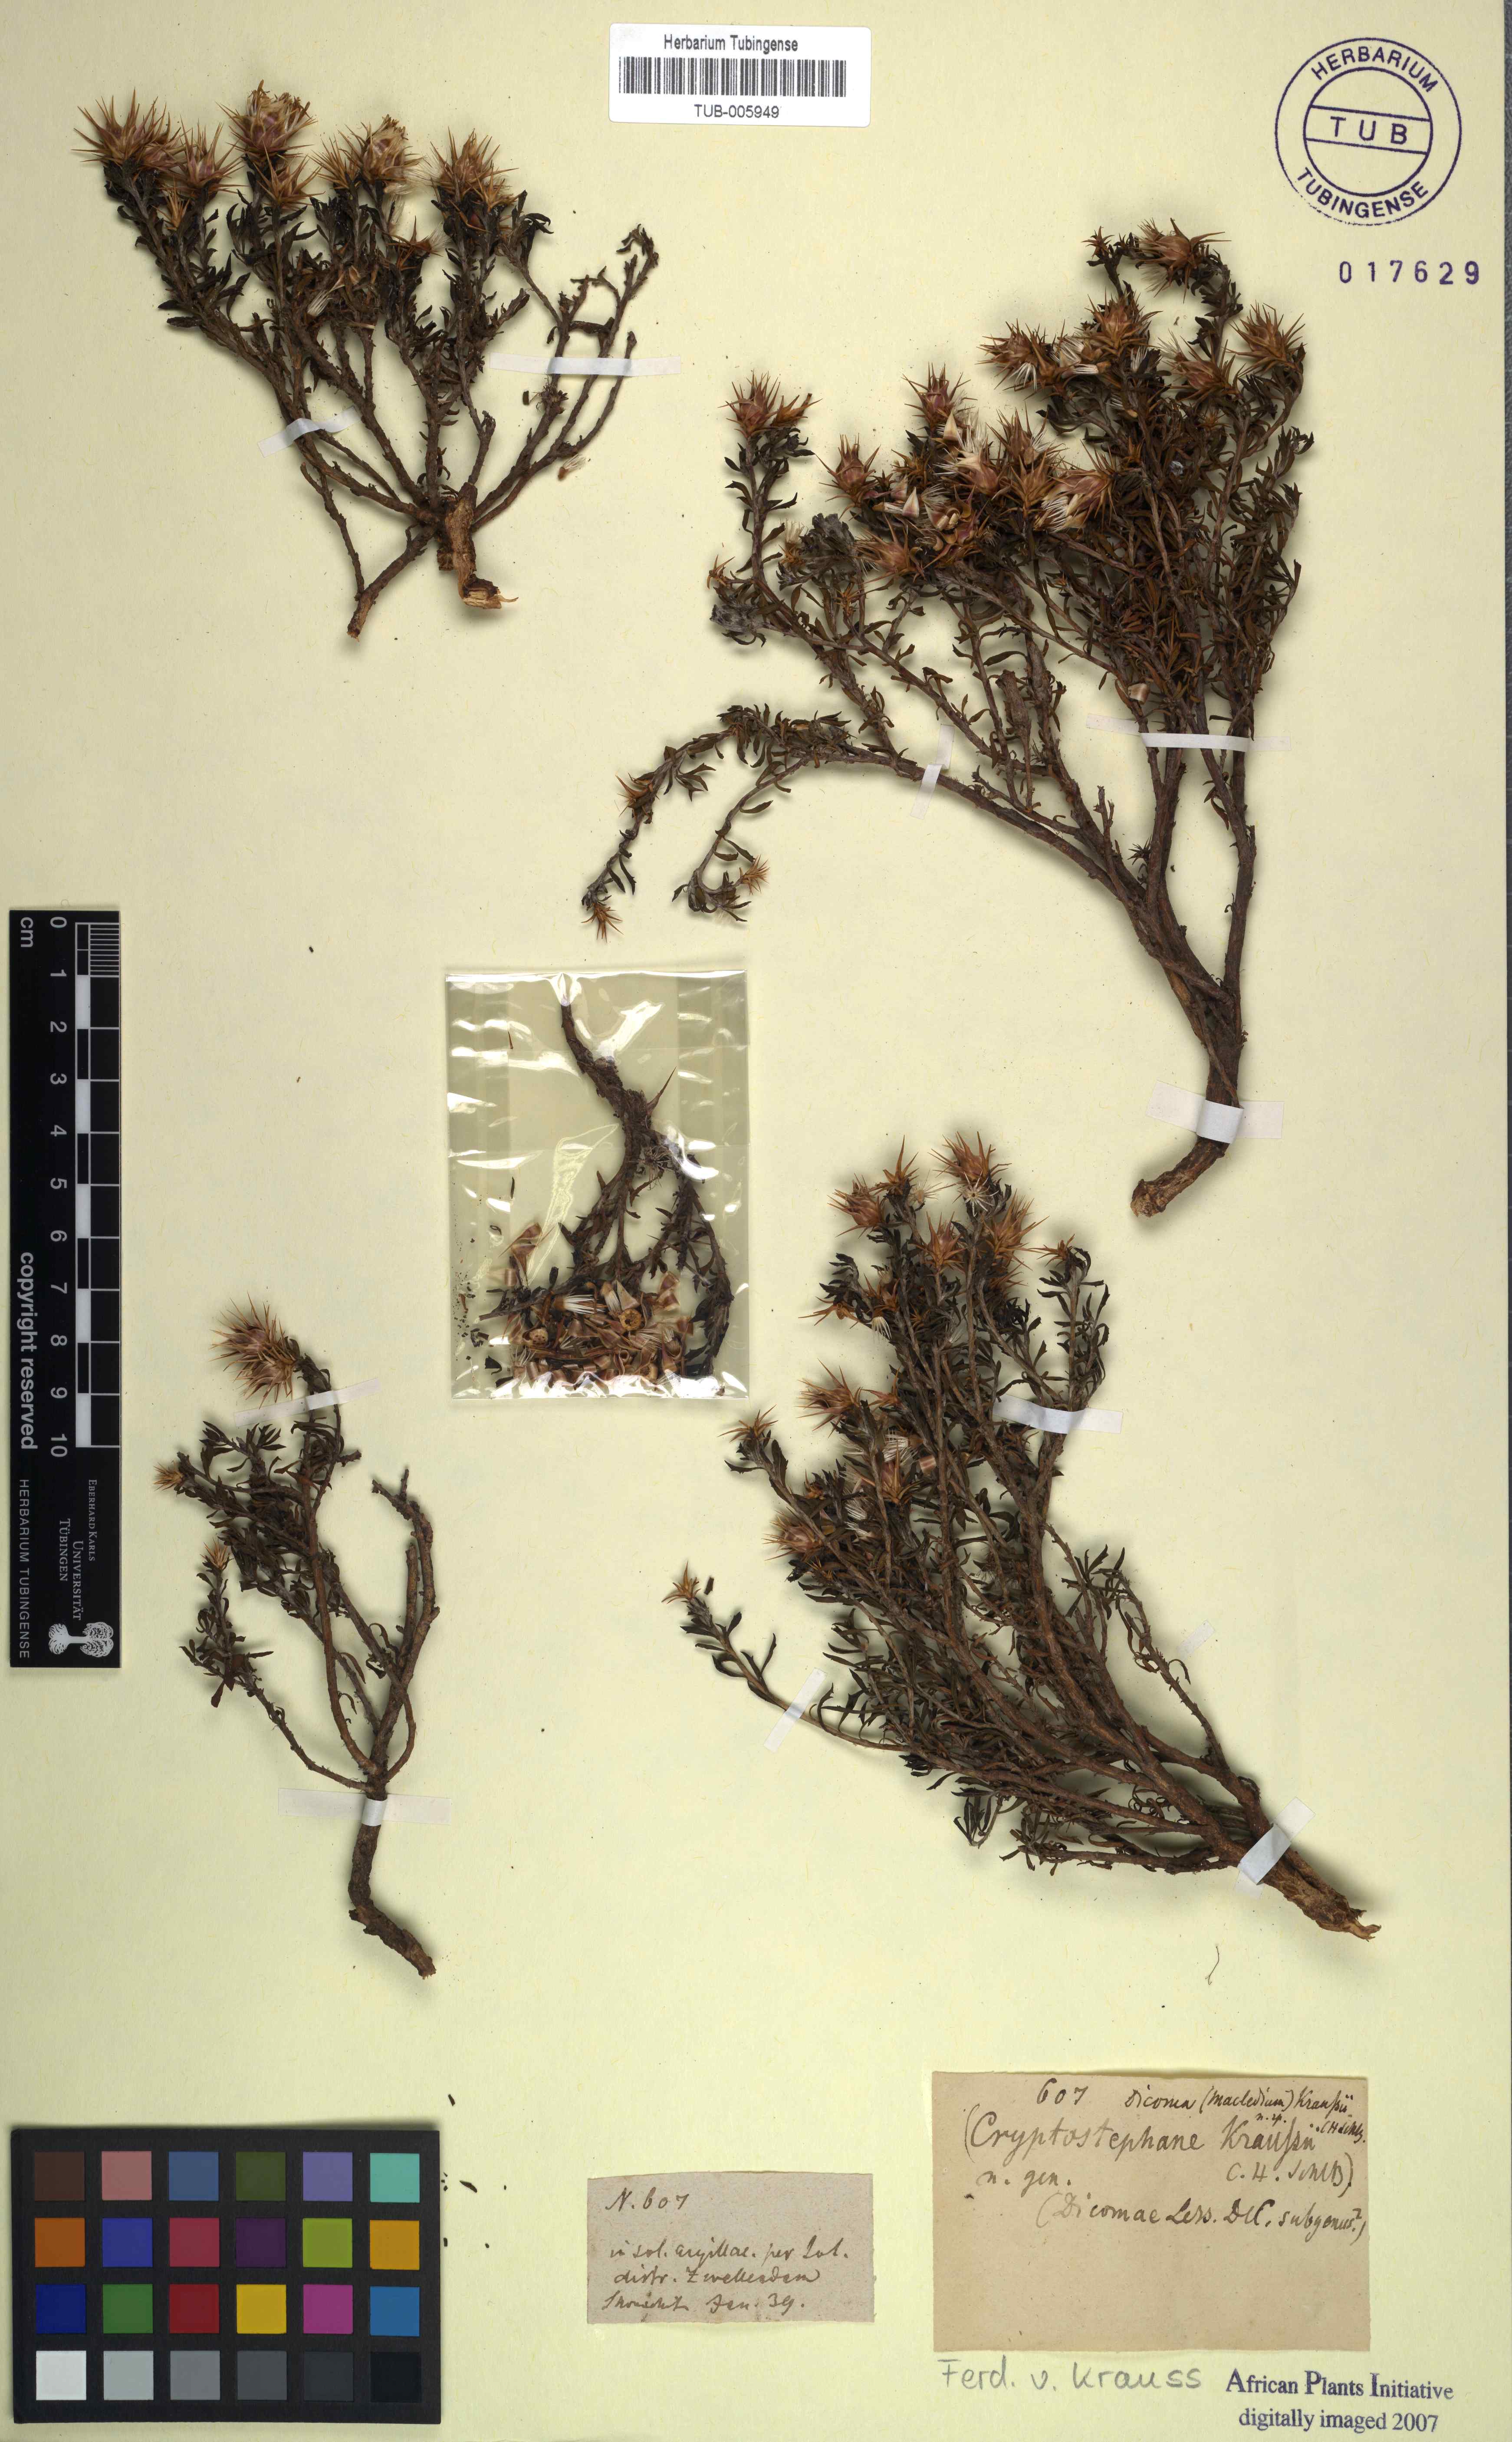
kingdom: Plantae
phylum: Tracheophyta
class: Magnoliopsida
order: Asterales
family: Asteraceae
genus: Macledium
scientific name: Macledium spinosum
